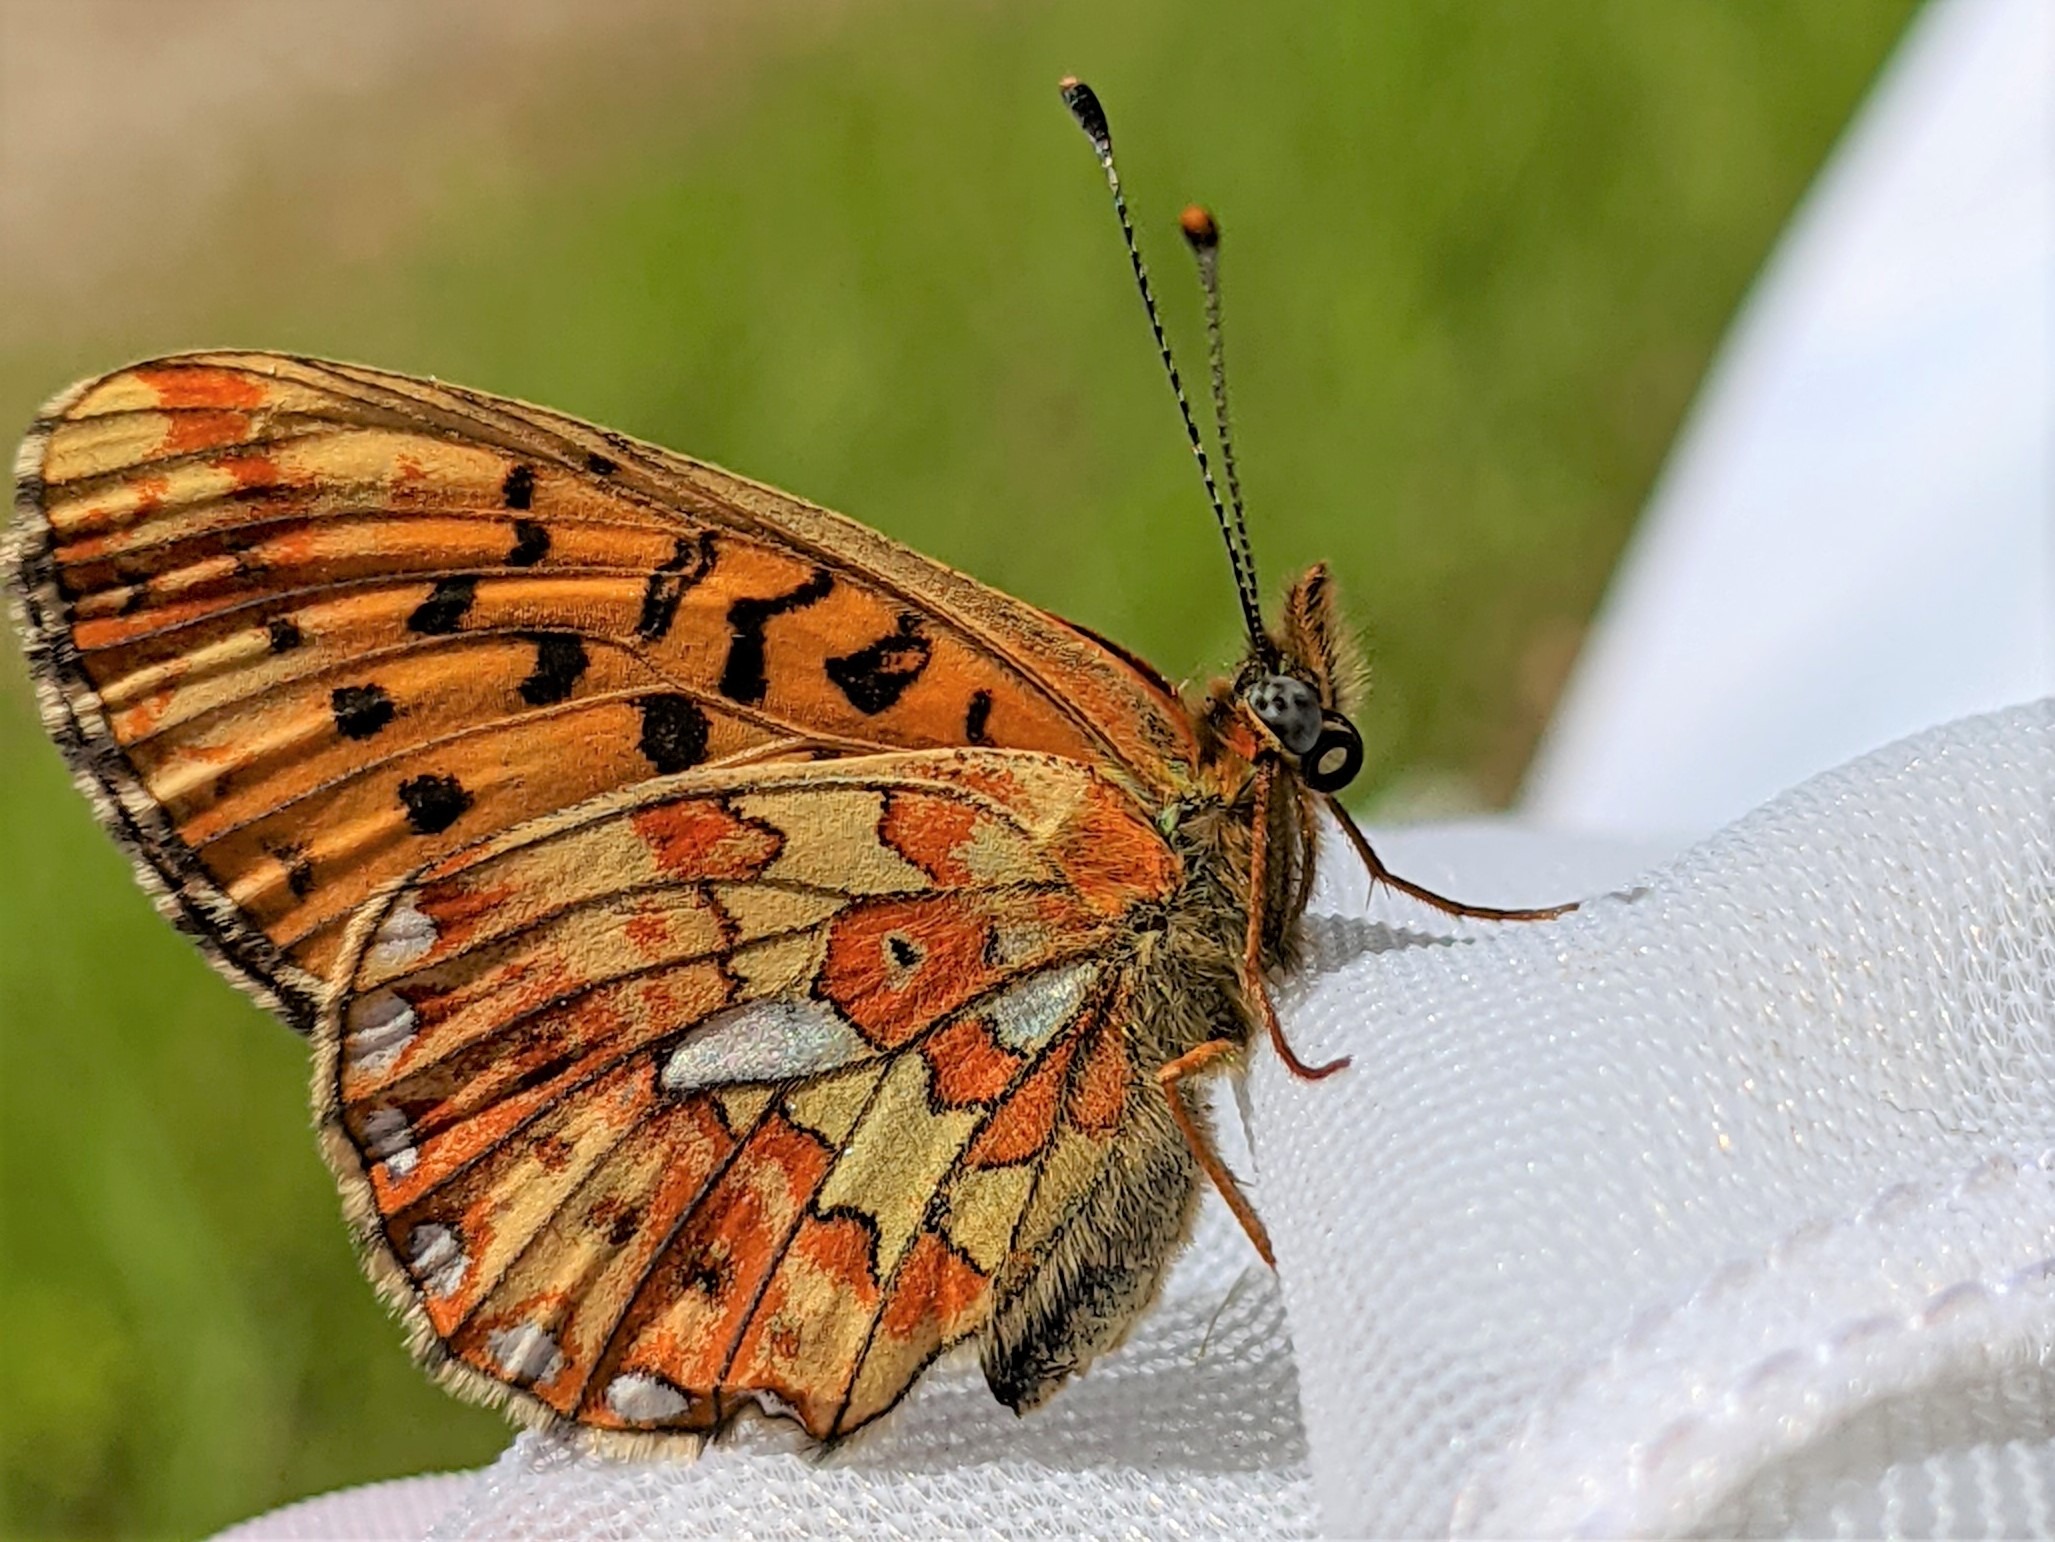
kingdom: Animalia
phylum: Arthropoda
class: Insecta
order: Lepidoptera
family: Nymphalidae
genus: Clossiana
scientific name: Clossiana euphrosyne
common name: Rødlig perlemorsommerfugl
